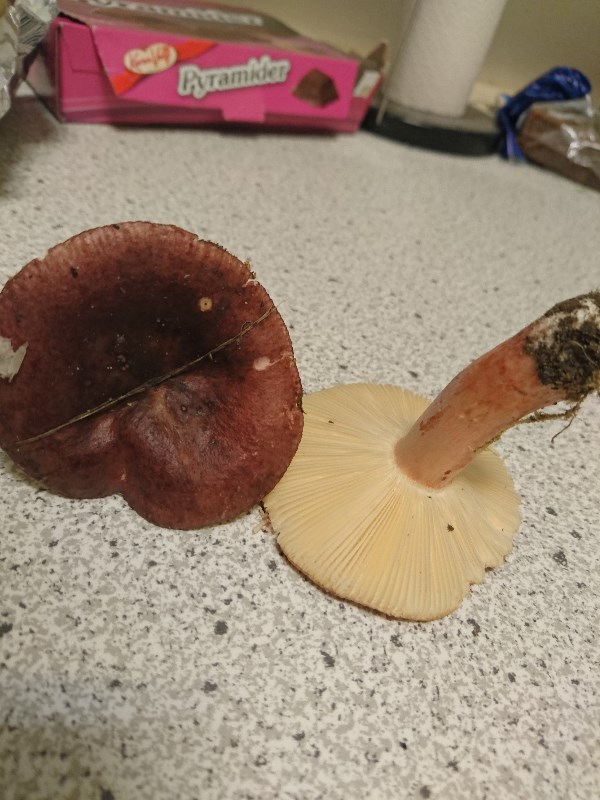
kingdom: Fungi
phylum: Basidiomycota
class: Agaricomycetes
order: Russulales
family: Russulaceae
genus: Russula
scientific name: Russula queletii
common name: Quélets skørhat
